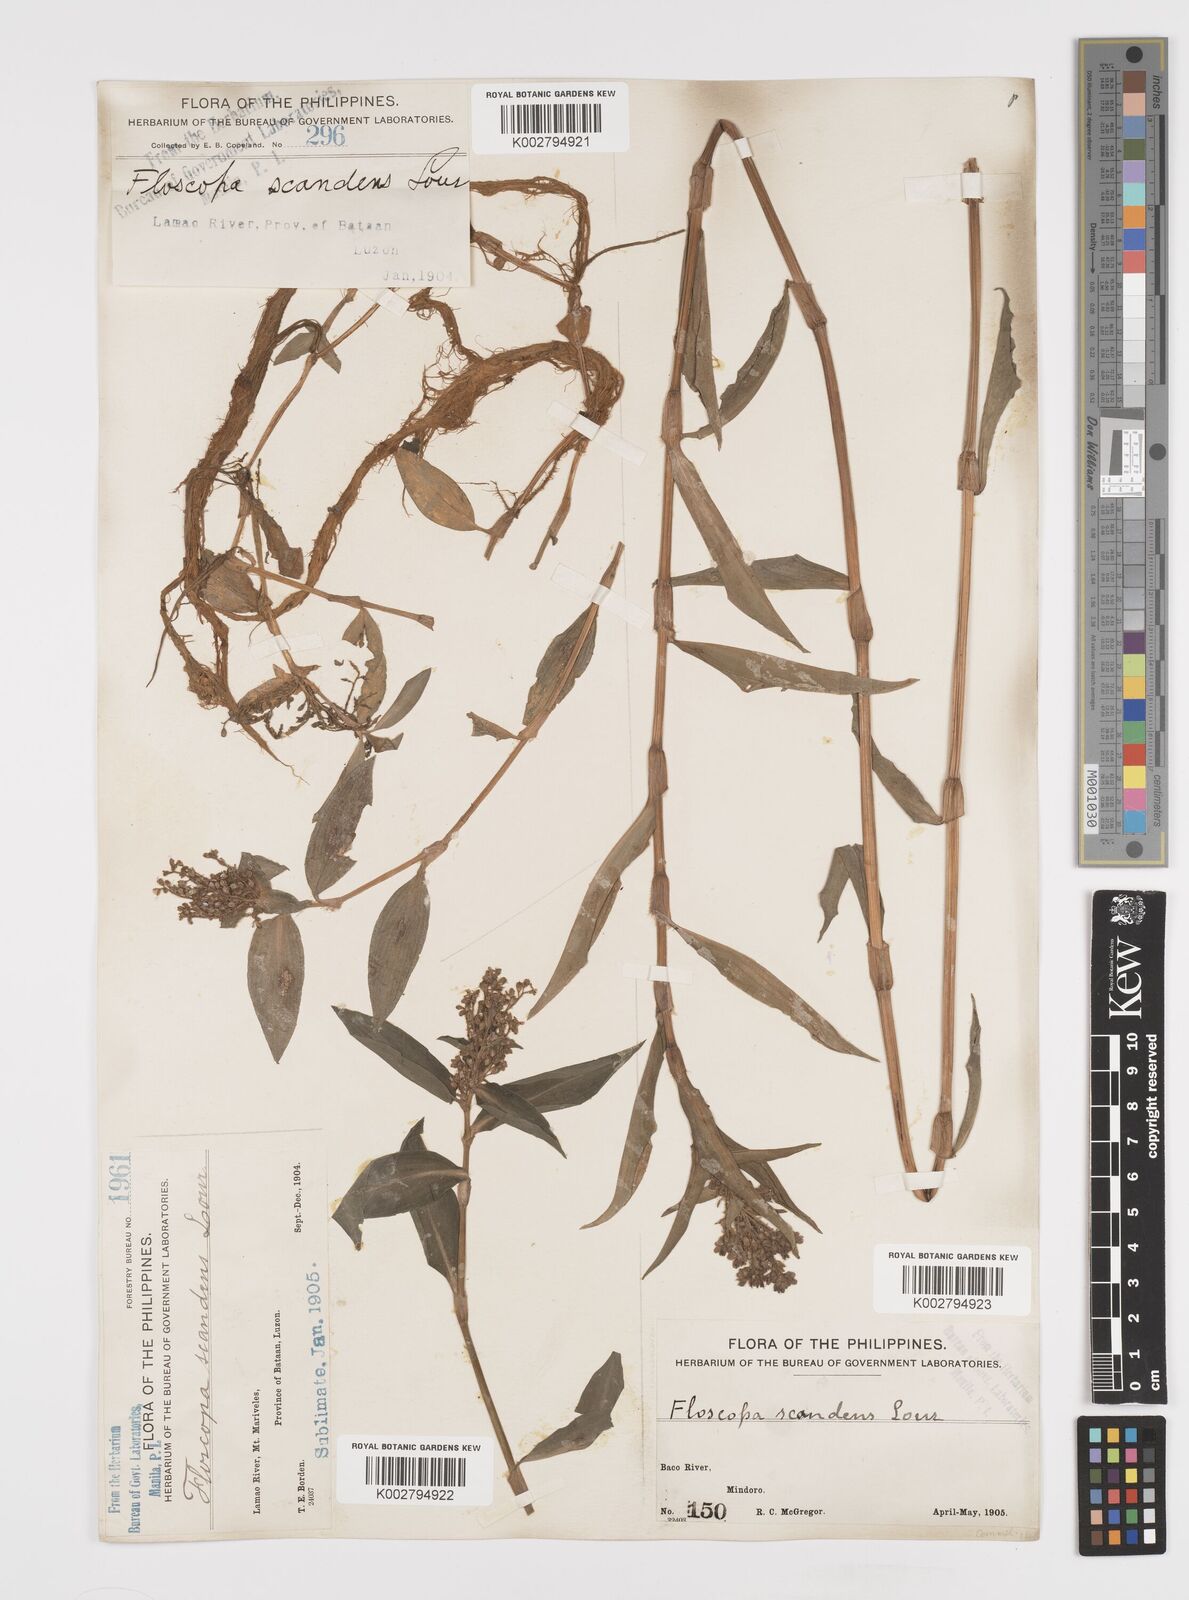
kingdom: Plantae
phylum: Tracheophyta
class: Liliopsida
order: Commelinales
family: Commelinaceae
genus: Floscopa
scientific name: Floscopa scandens
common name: Climbing flower cup
